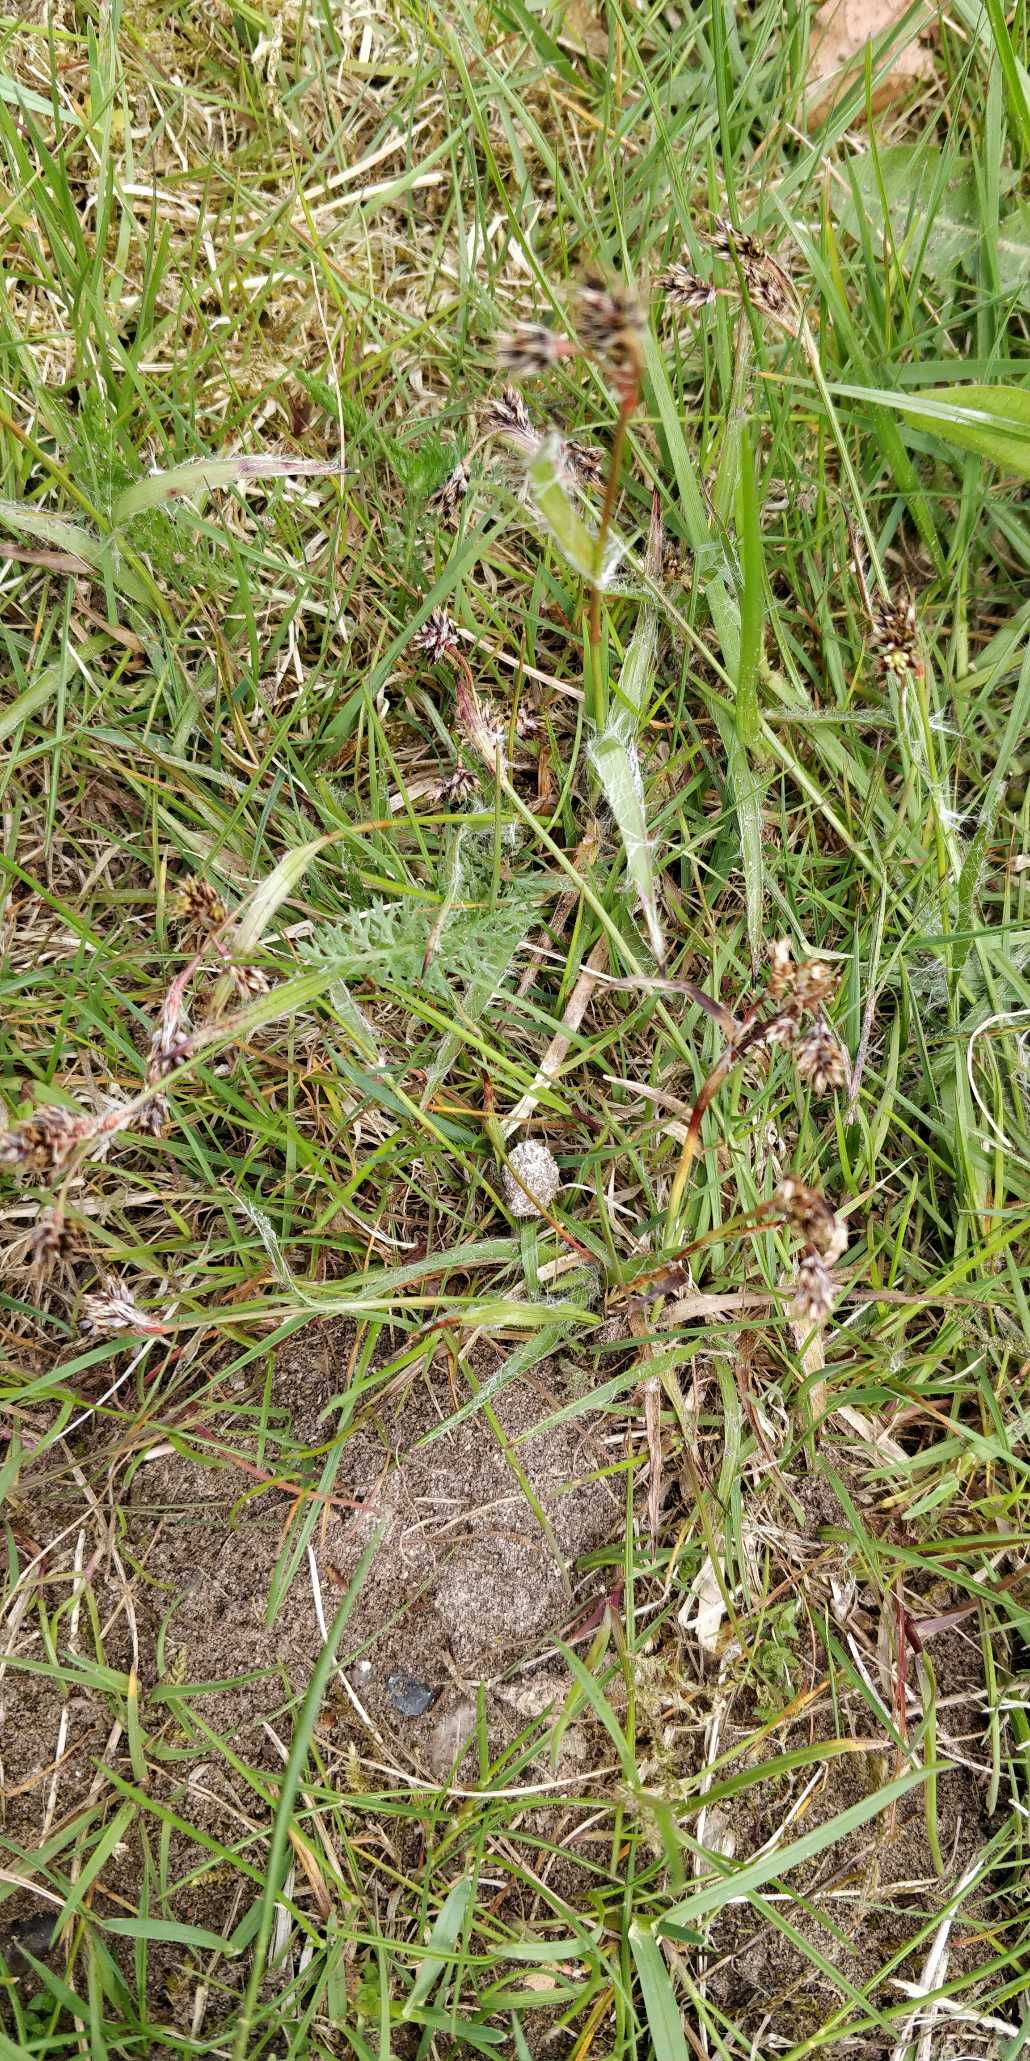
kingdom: Plantae
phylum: Tracheophyta
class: Liliopsida
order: Poales
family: Juncaceae
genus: Luzula
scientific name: Luzula campestris
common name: Mark-frytle
